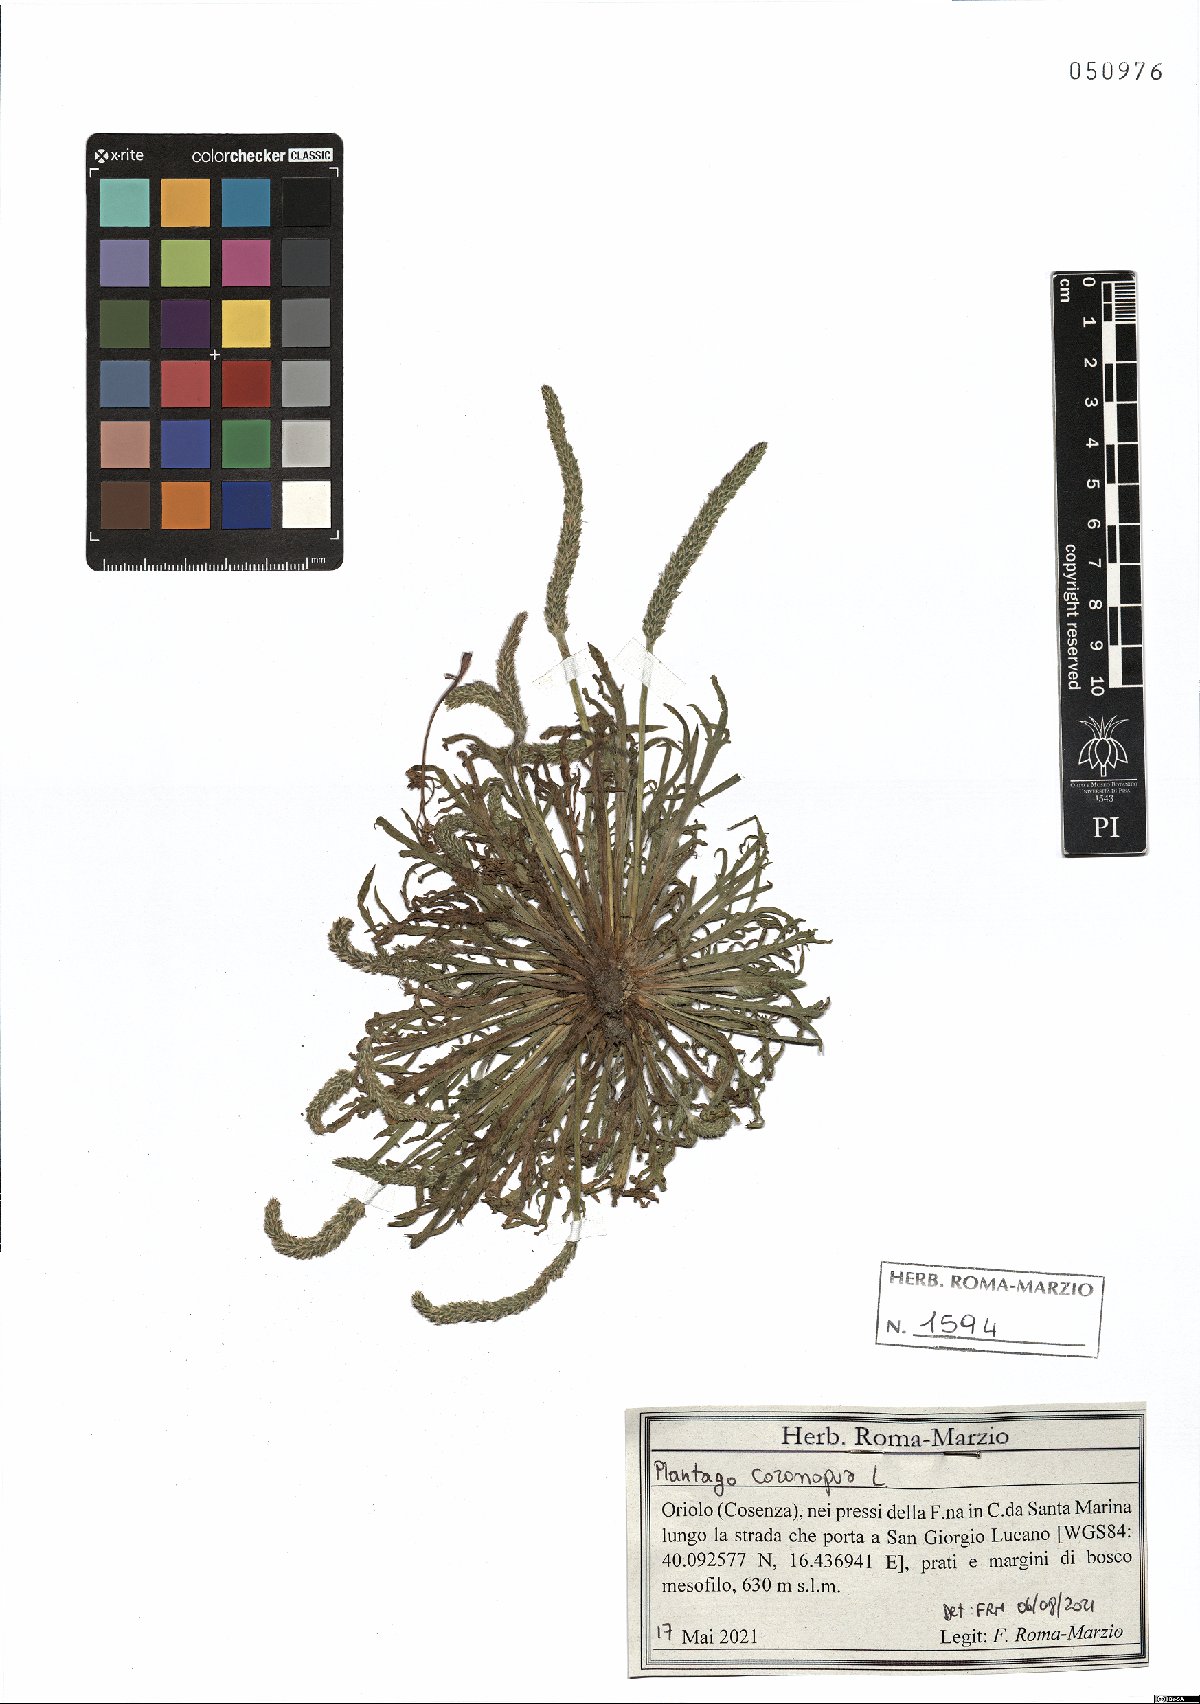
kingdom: Plantae
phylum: Tracheophyta
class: Magnoliopsida
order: Lamiales
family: Plantaginaceae
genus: Plantago
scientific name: Plantago coronopus
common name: Buck's-horn plantain
